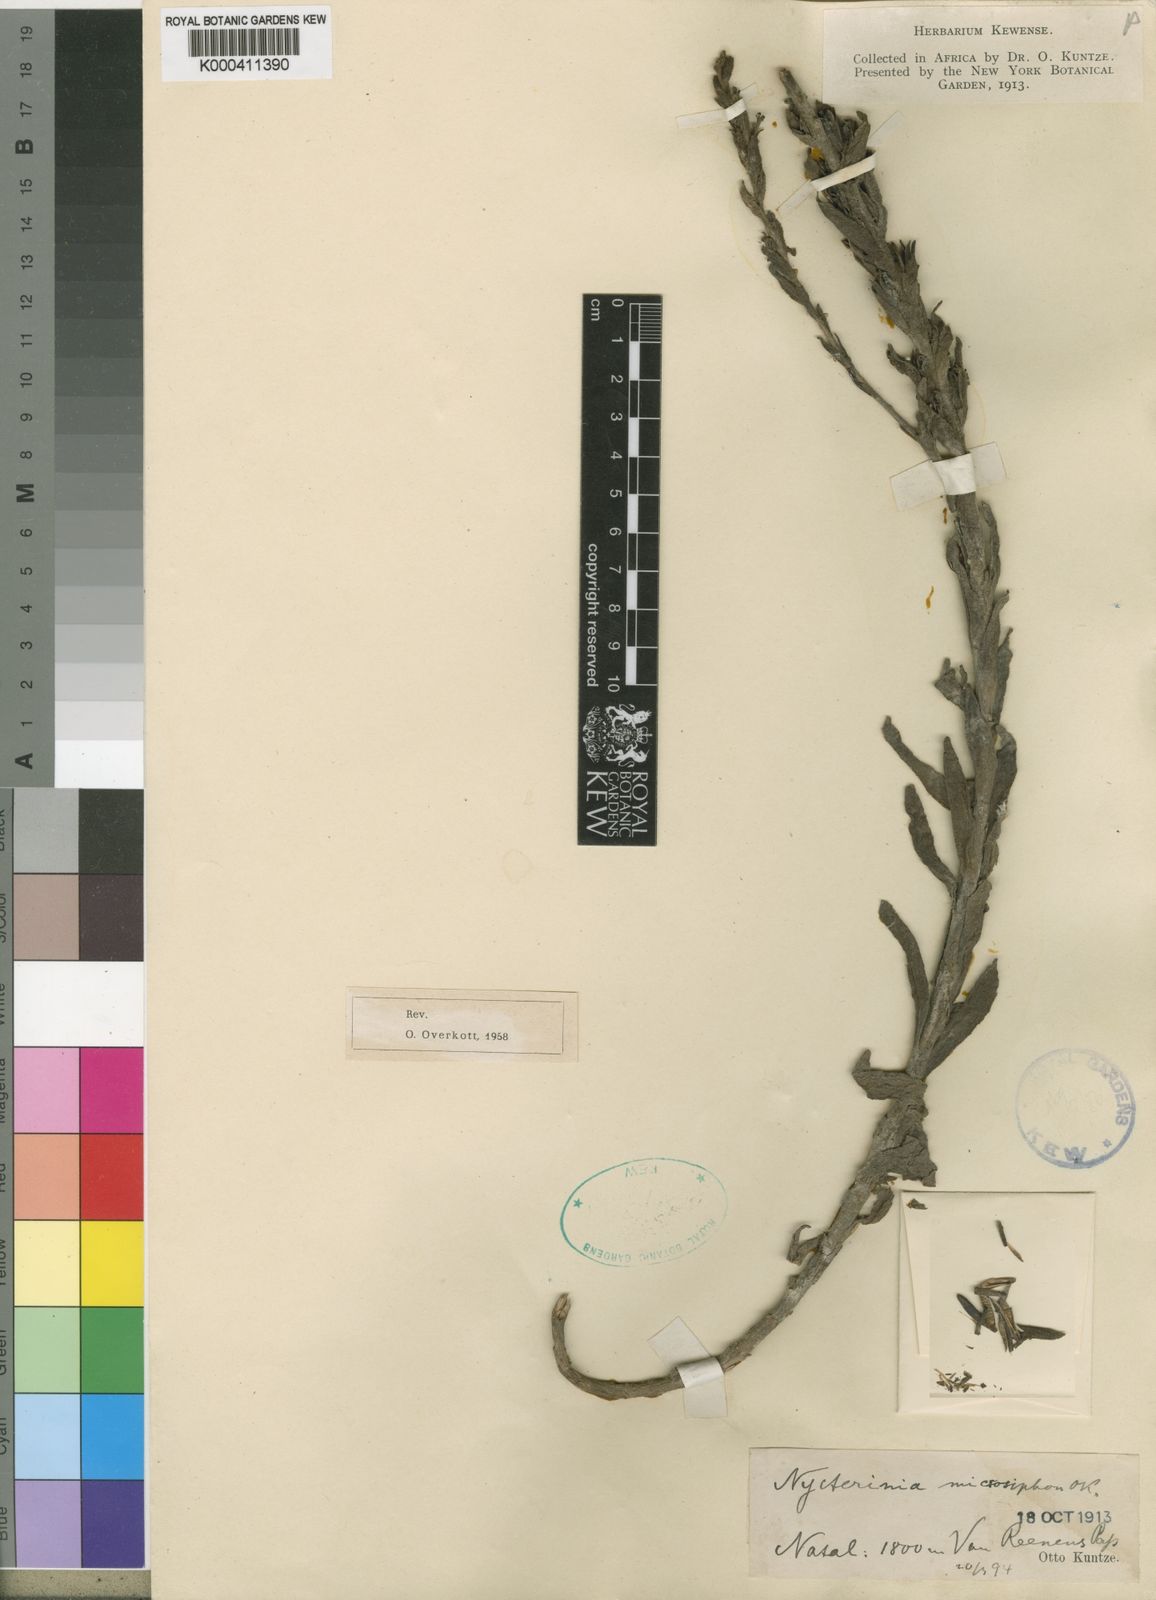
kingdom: Plantae
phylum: Tracheophyta
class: Magnoliopsida
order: Lamiales
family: Scrophulariaceae
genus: Zaluzianskya
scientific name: Zaluzianskya microsiphon
